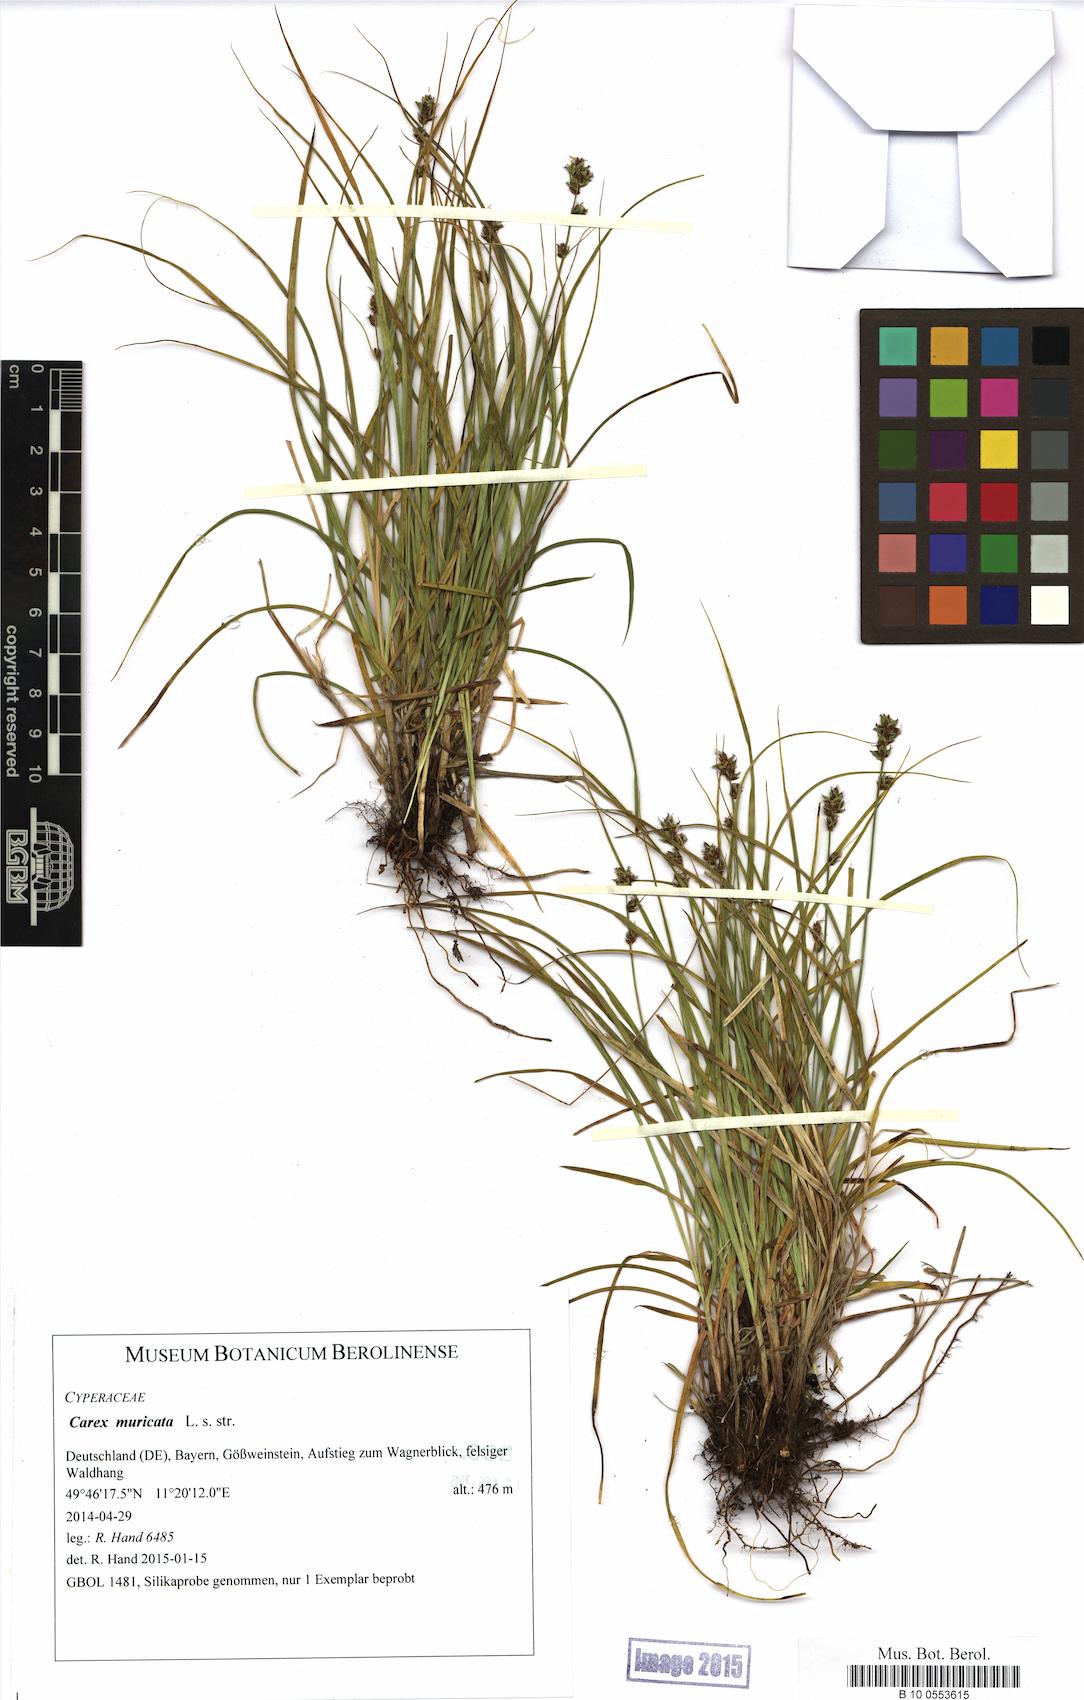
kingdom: Plantae
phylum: Tracheophyta
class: Liliopsida
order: Poales
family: Cyperaceae
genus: Carex
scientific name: Carex muricata
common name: Rough sedge
